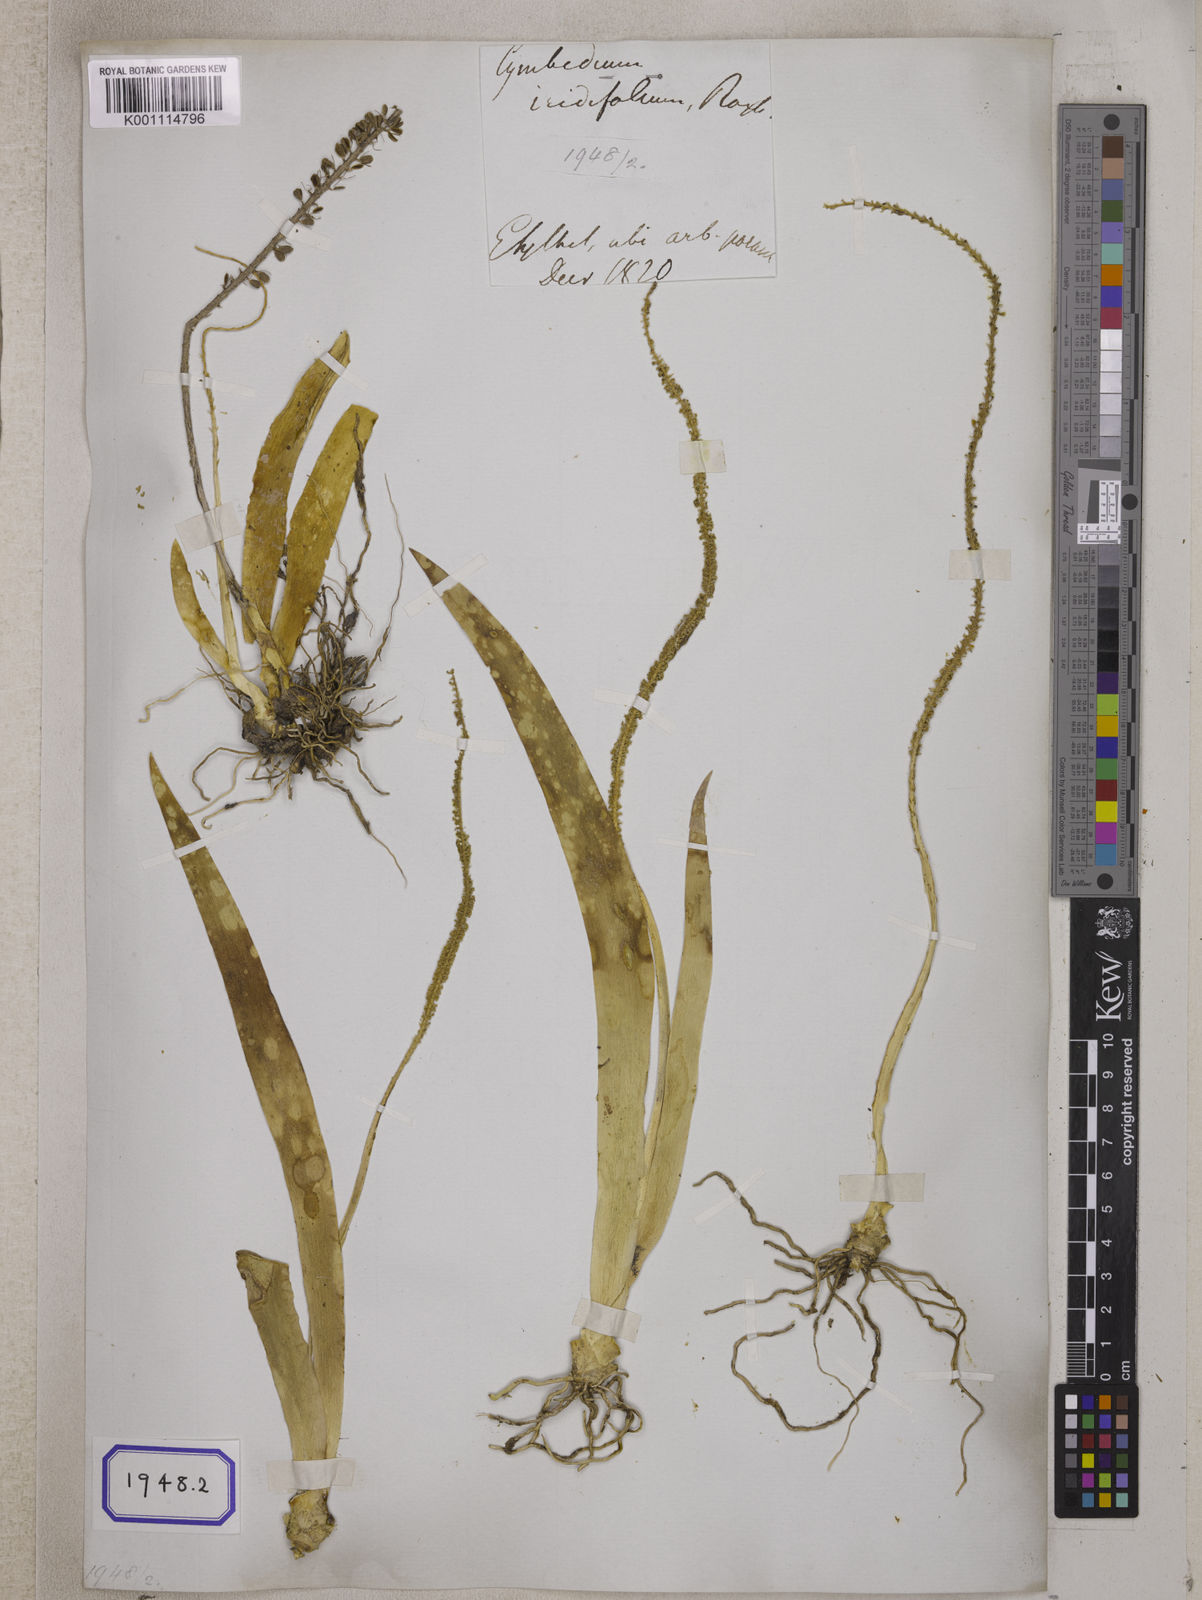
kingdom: Plantae
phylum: Tracheophyta
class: Liliopsida
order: Asparagales
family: Orchidaceae
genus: Oberonia
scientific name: Oberonia
